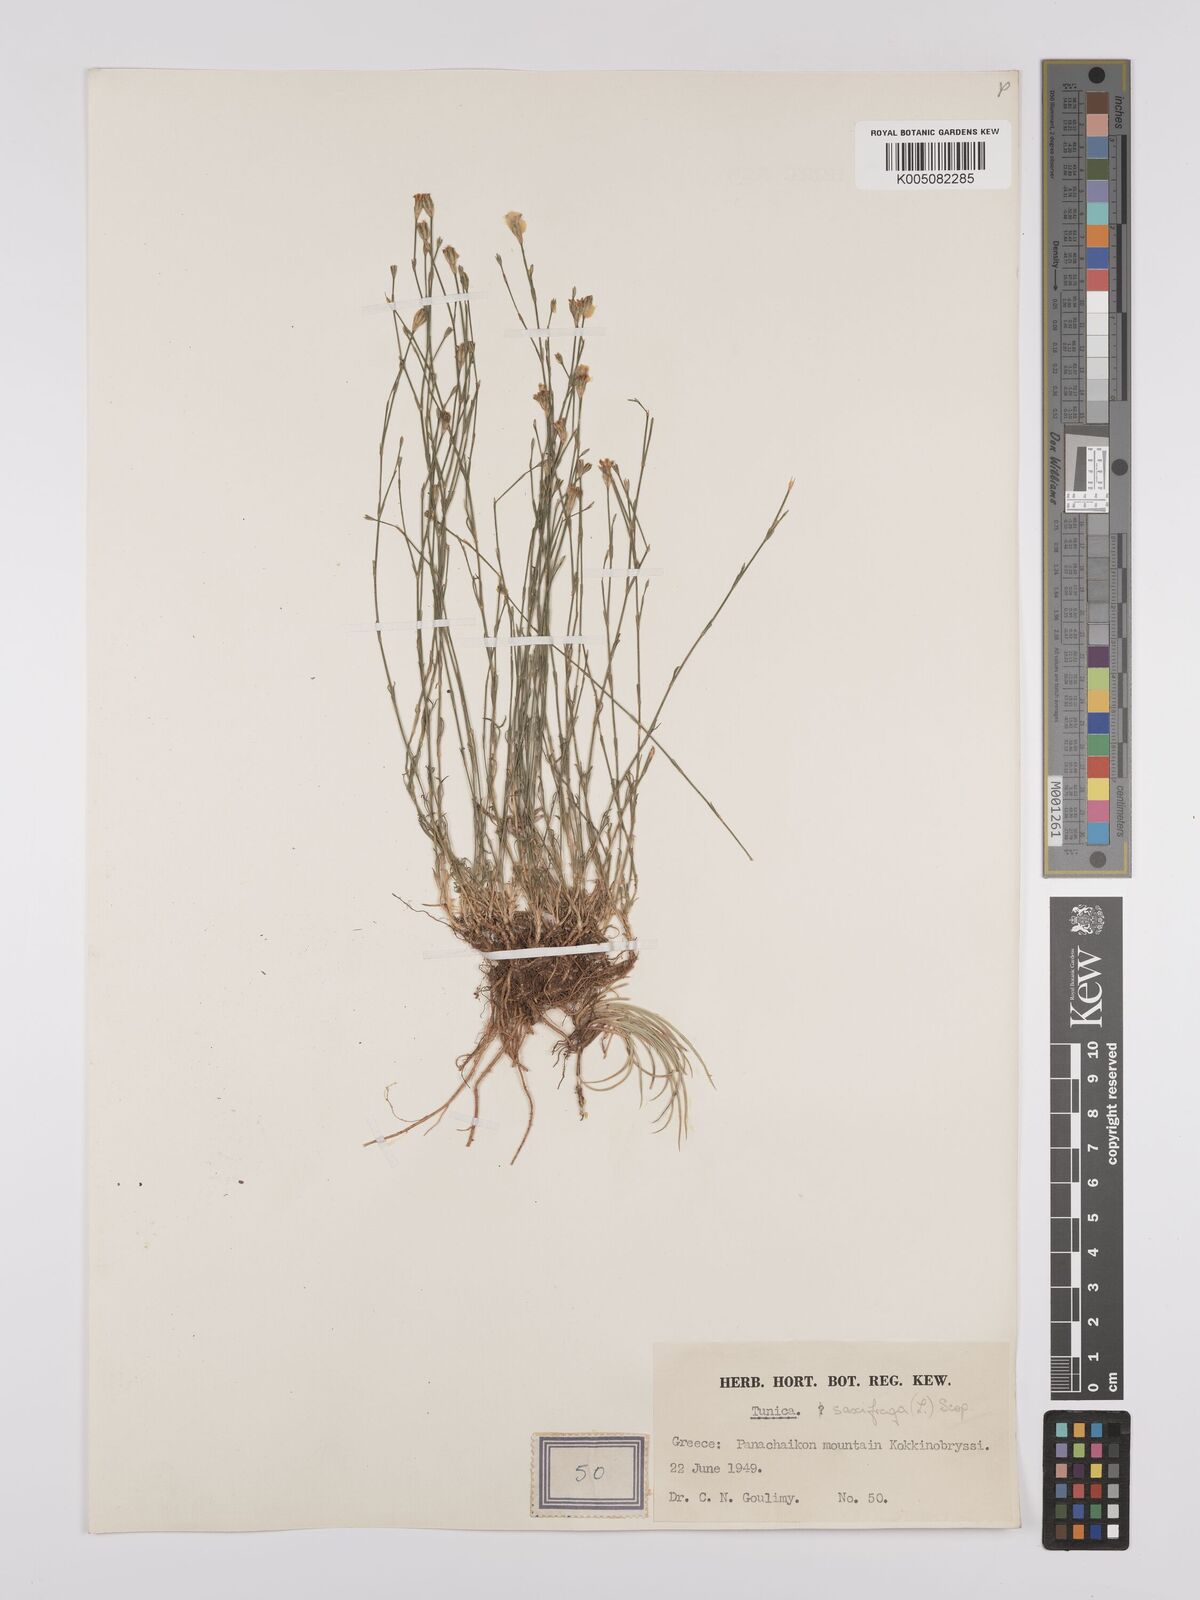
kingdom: Plantae
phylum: Tracheophyta
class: Magnoliopsida
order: Caryophyllales
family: Caryophyllaceae
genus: Petrorhagia
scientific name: Petrorhagia saxifraga
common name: Tunicflower
